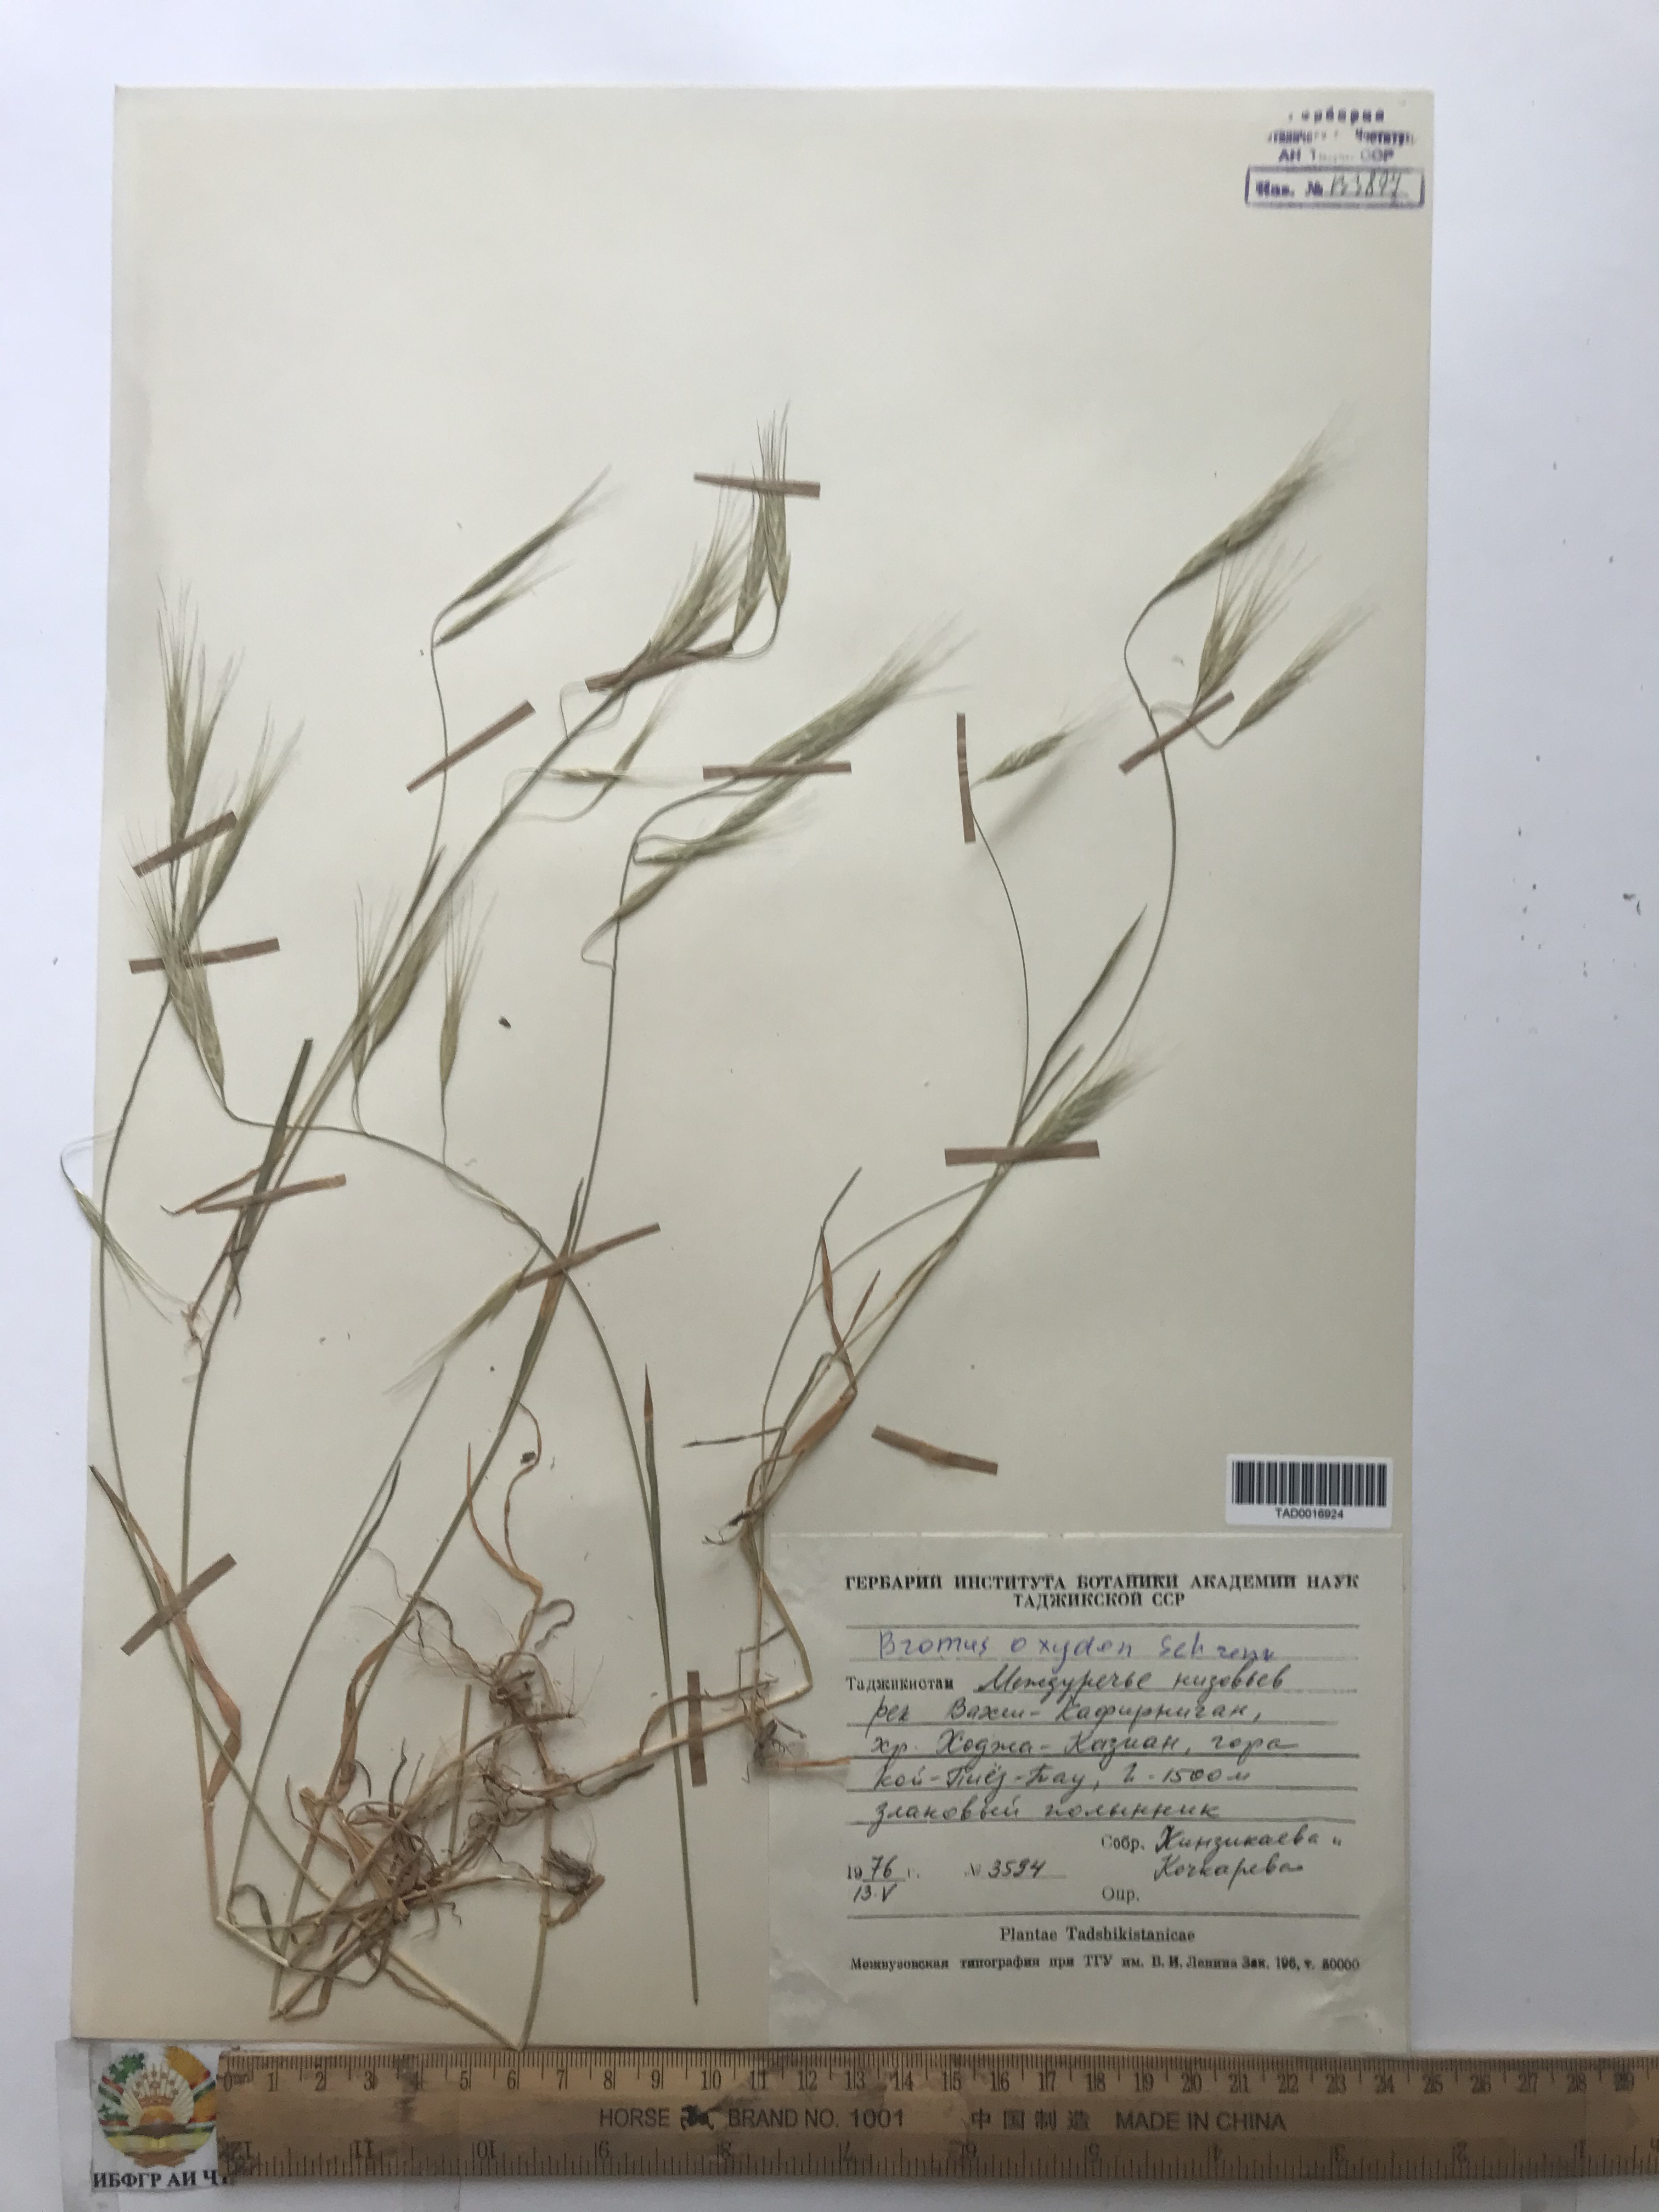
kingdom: Plantae
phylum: Tracheophyta
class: Liliopsida
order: Poales
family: Poaceae
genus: Bromus
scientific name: Bromus oxyodon
